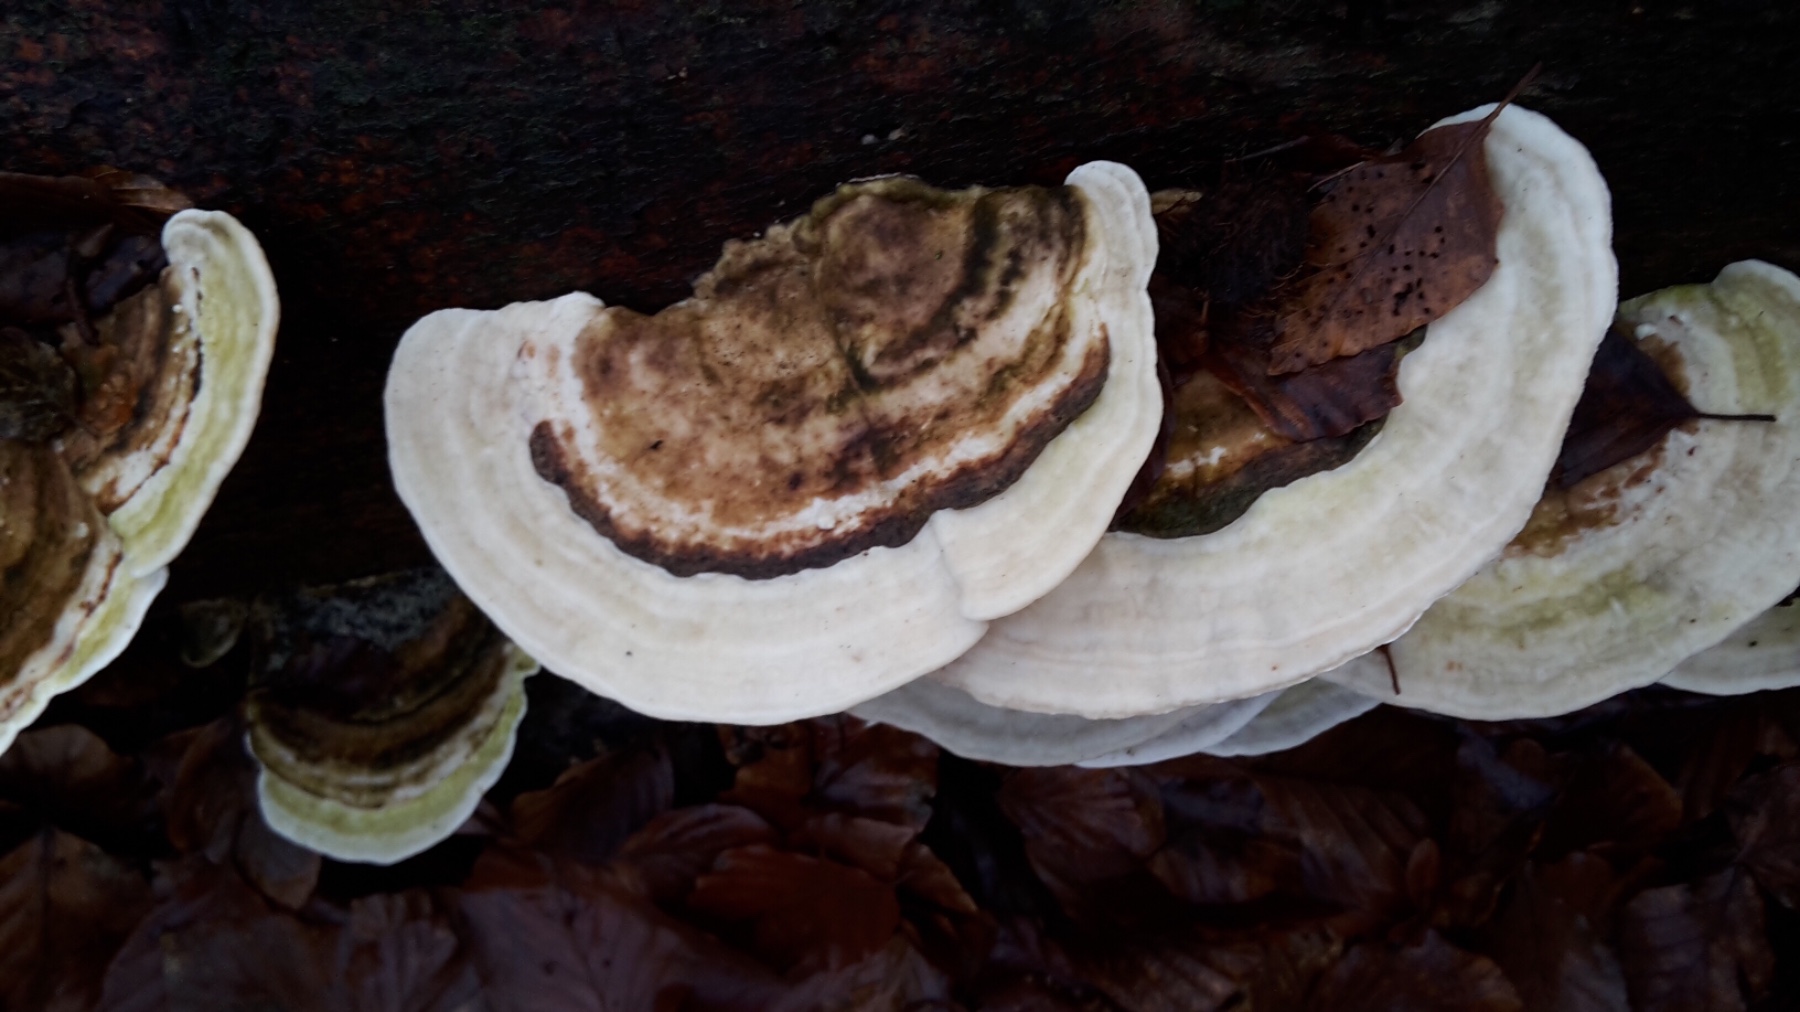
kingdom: Fungi
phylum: Basidiomycota
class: Agaricomycetes
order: Polyporales
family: Polyporaceae
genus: Trametes
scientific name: Trametes gibbosa
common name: puklet læderporesvamp
